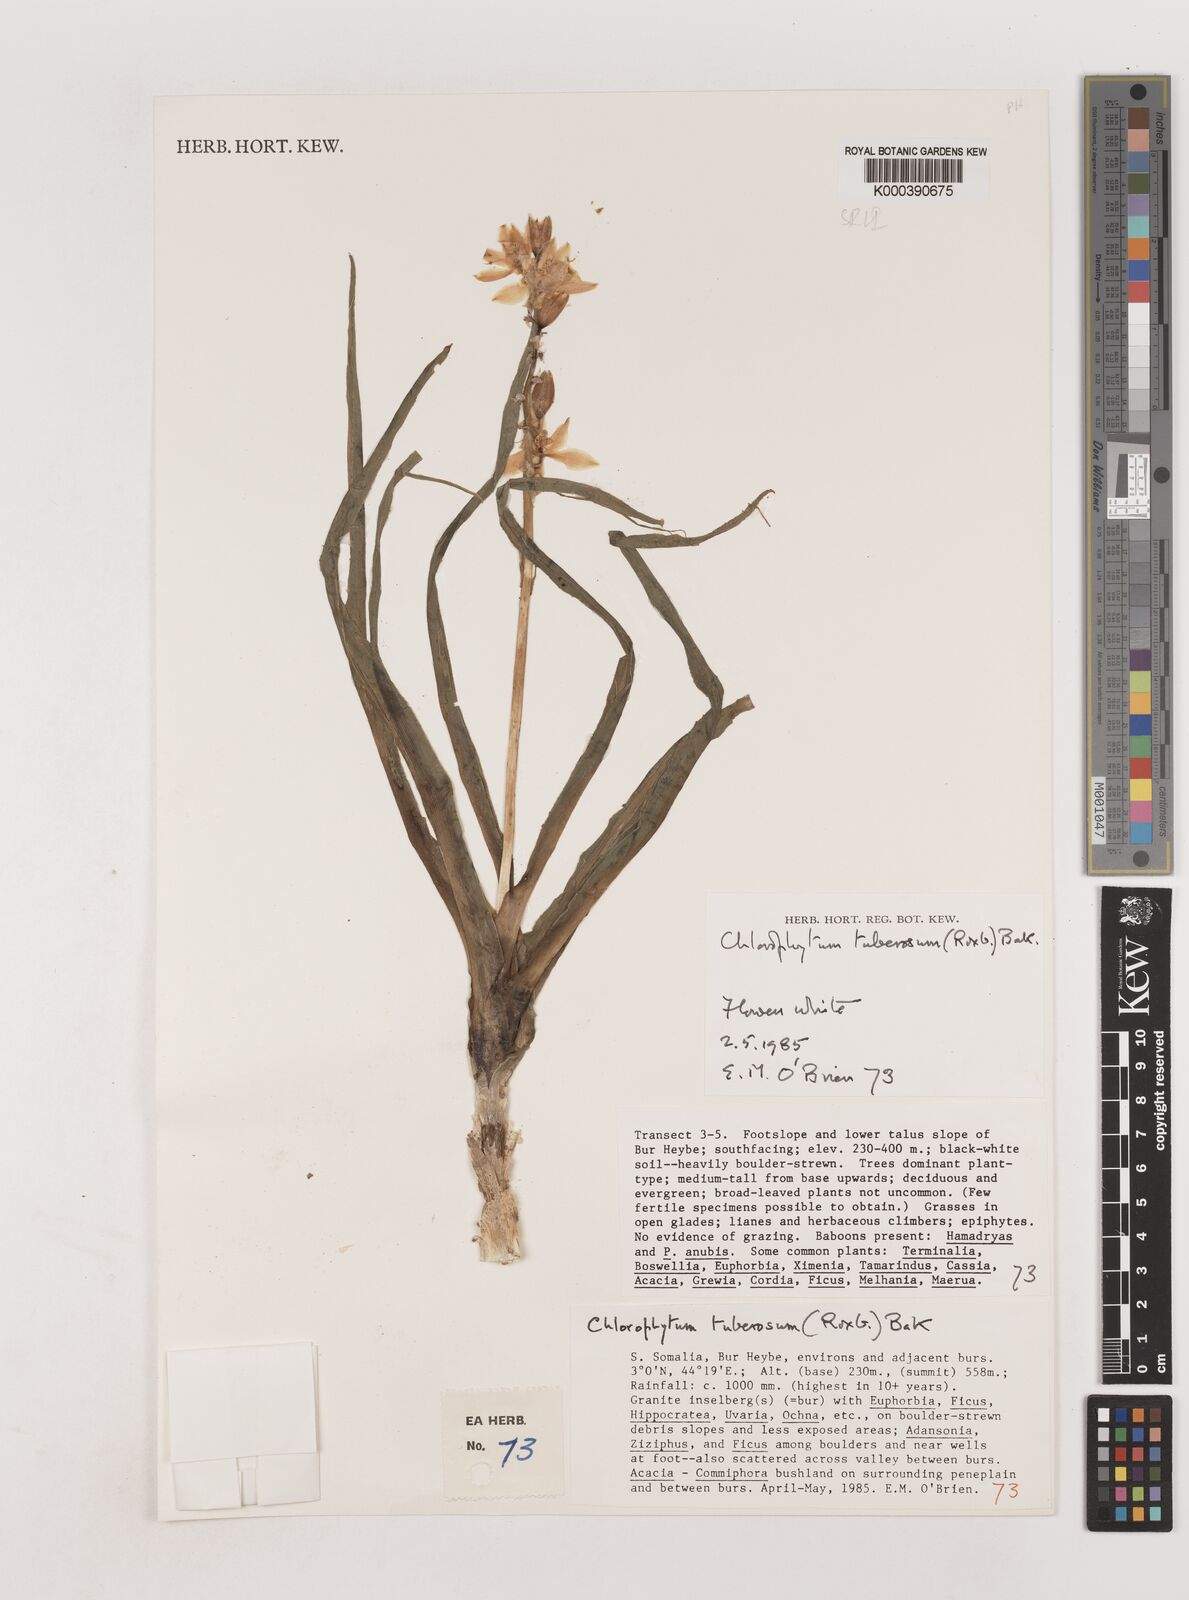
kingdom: Plantae
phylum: Tracheophyta
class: Liliopsida
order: Asparagales
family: Asparagaceae
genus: Chlorophytum
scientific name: Chlorophytum tuberosum
